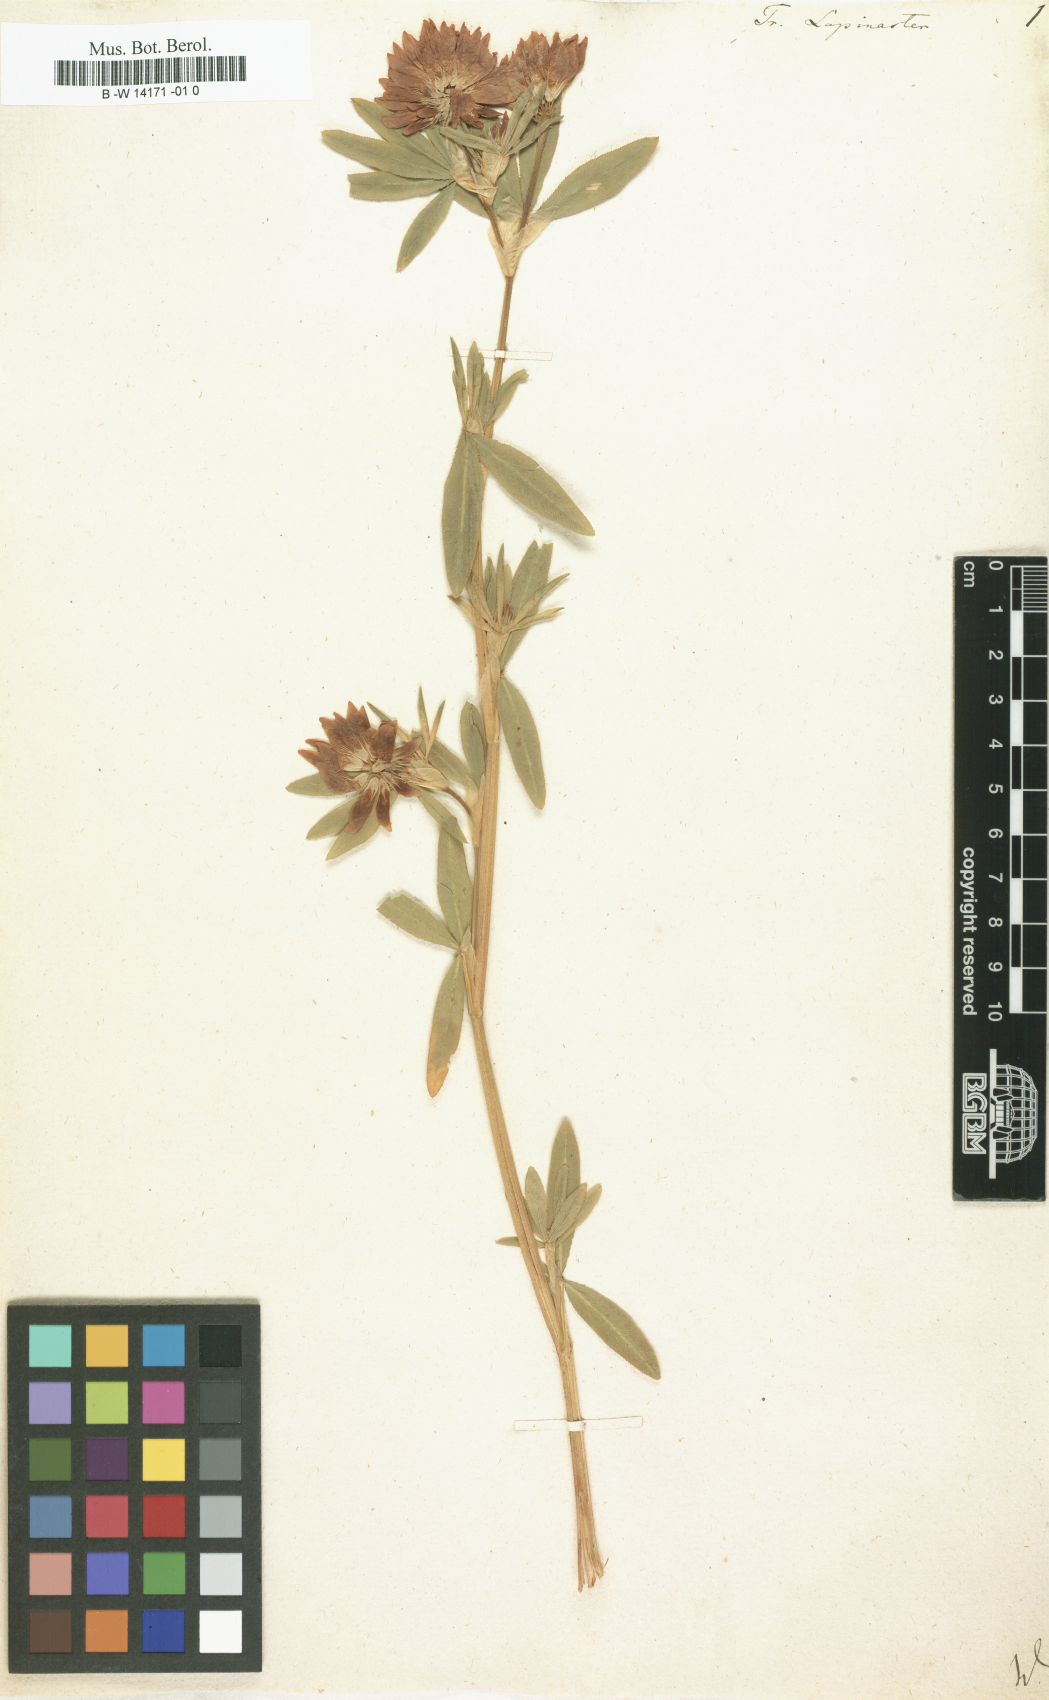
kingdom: Plantae
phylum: Tracheophyta
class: Magnoliopsida
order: Fabales
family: Fabaceae
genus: Trifolium
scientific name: Trifolium lupinaster
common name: Lupine clover
